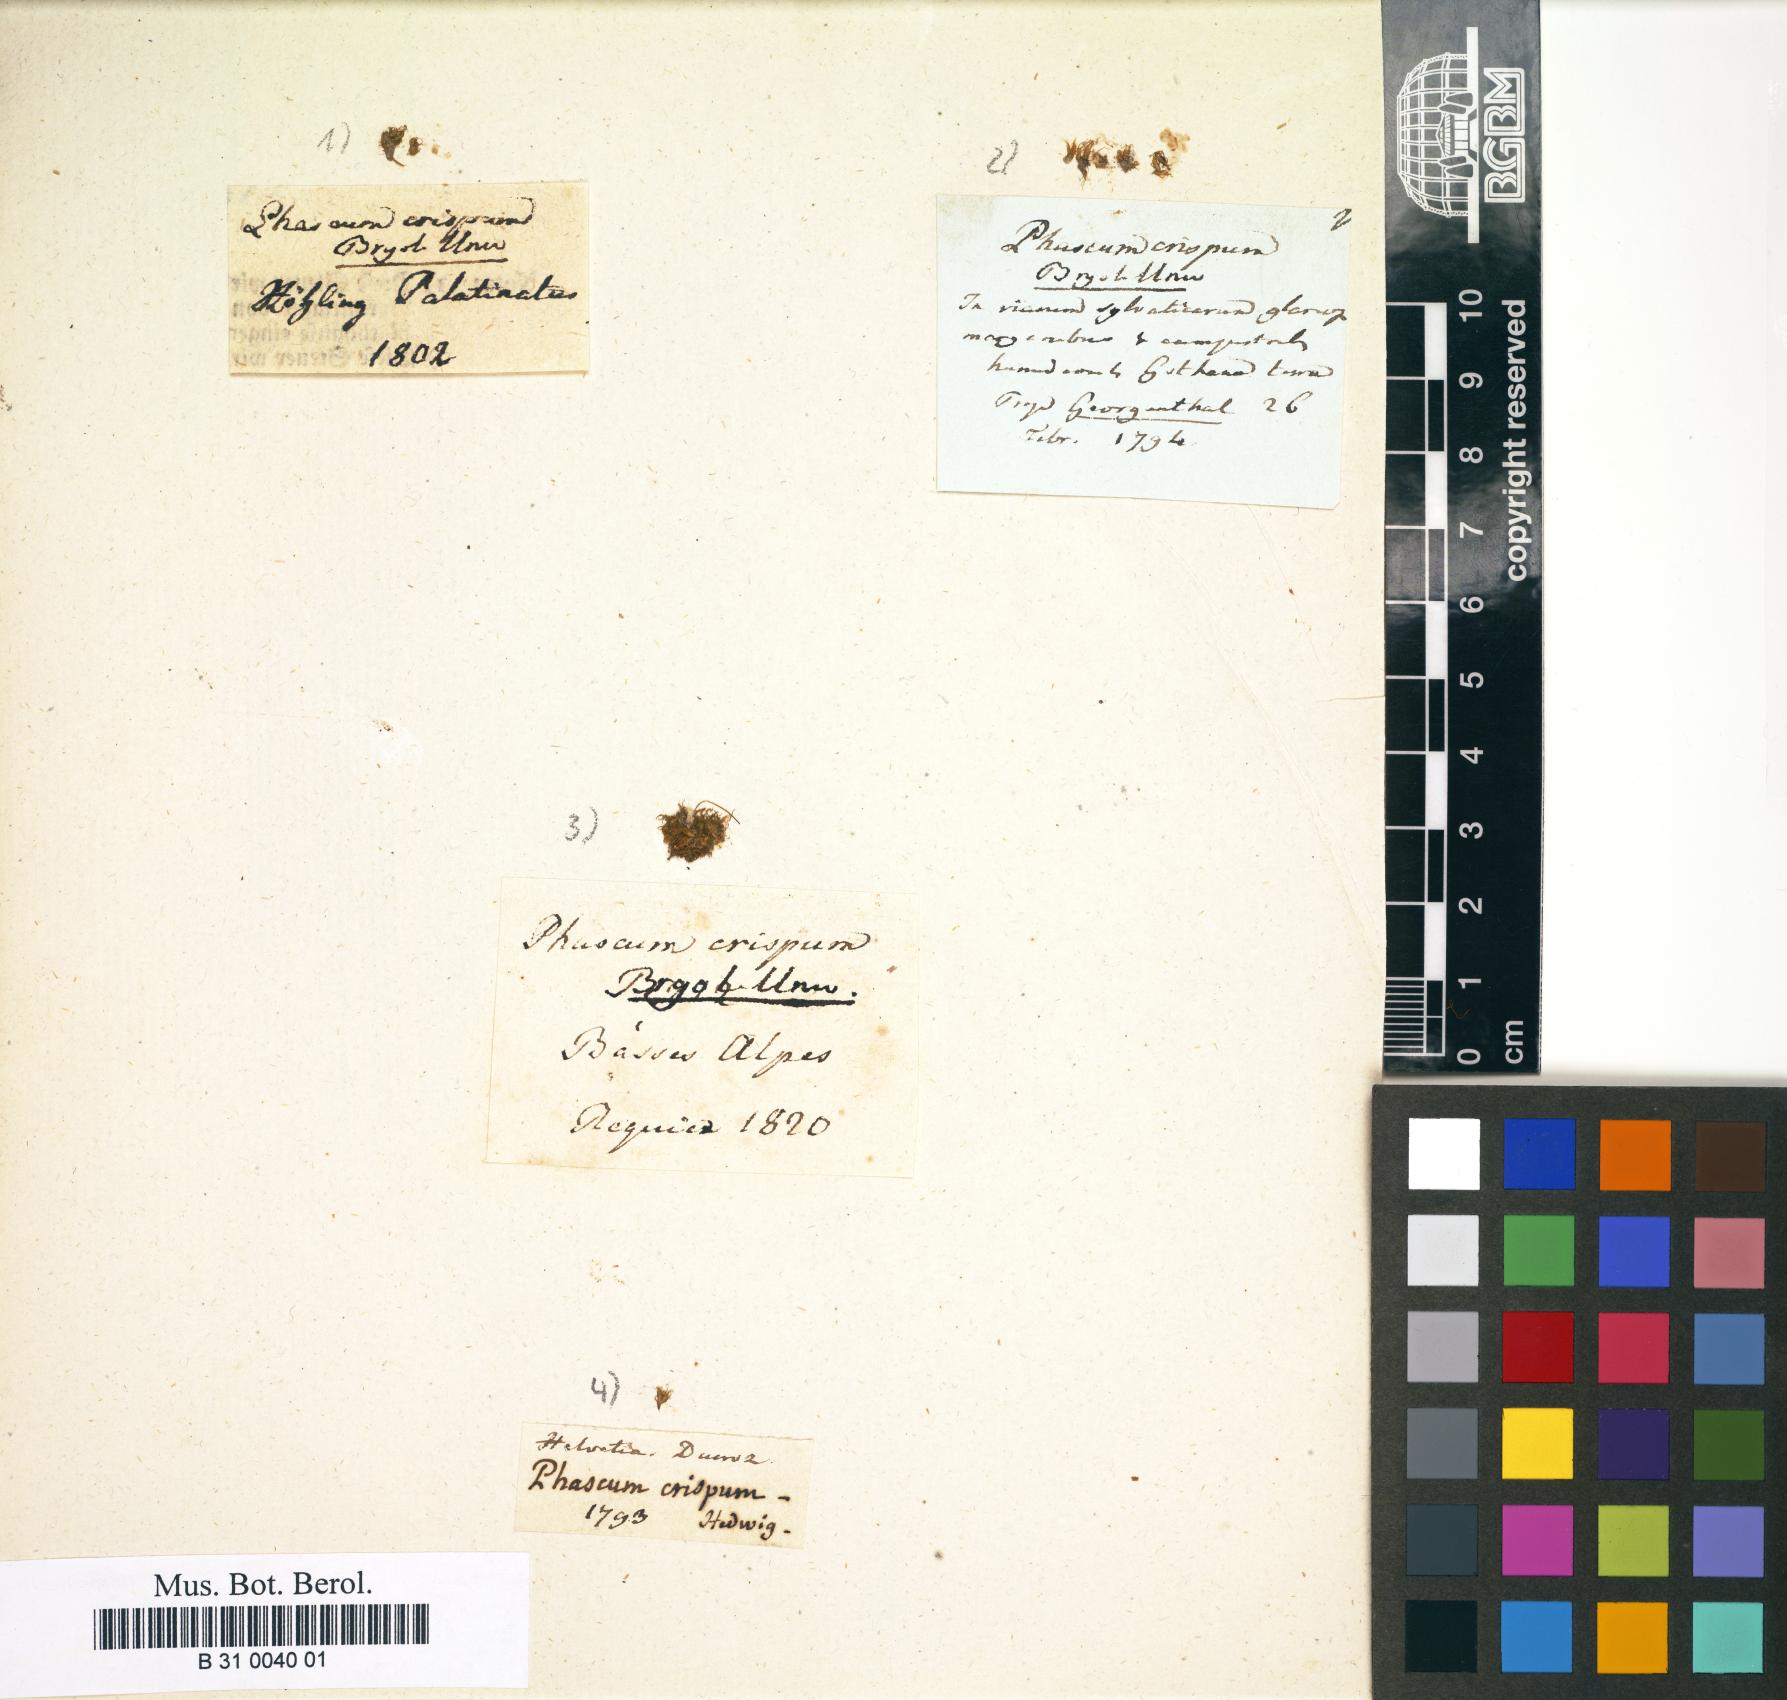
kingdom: Plantae
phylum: Bryophyta
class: Bryopsida
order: Pottiales
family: Pottiaceae
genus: Weissia
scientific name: Weissia longifolia
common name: Crisp beardless-moss
